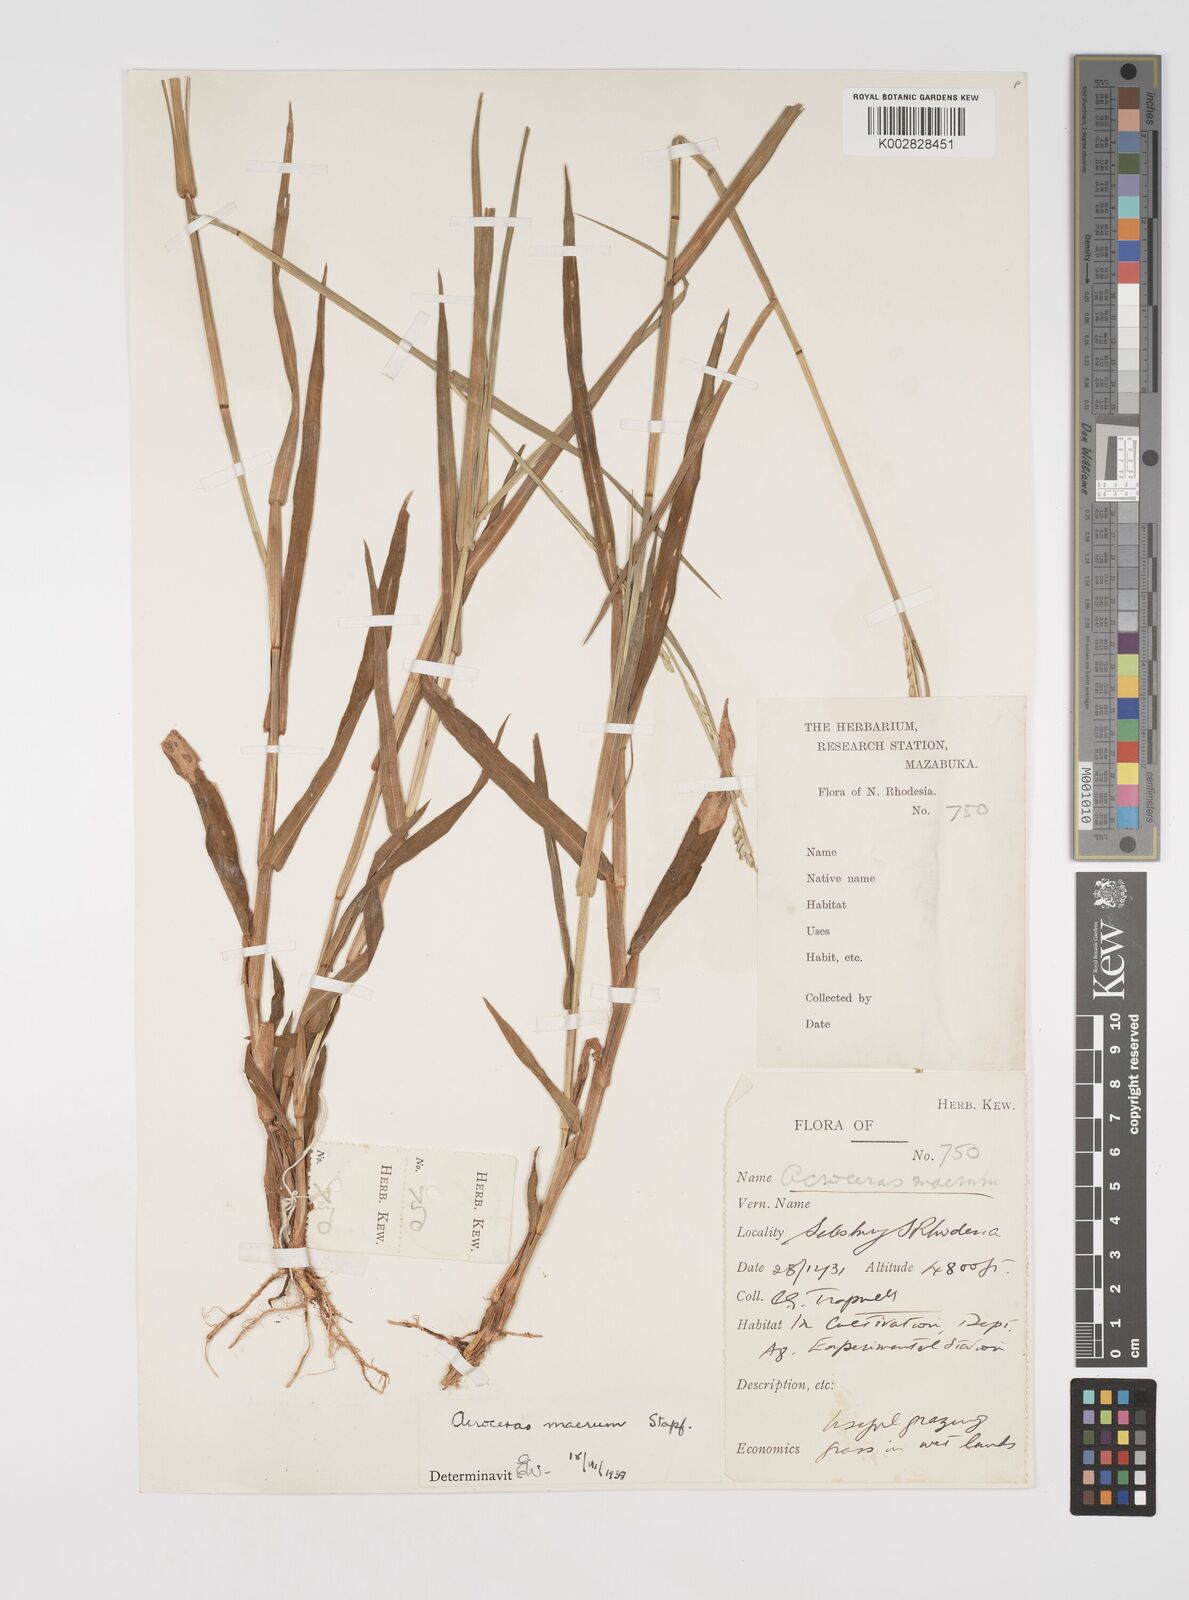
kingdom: Plantae
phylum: Tracheophyta
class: Liliopsida
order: Poales
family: Poaceae
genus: Acroceras
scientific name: Acroceras macrum
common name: Nyl grass
